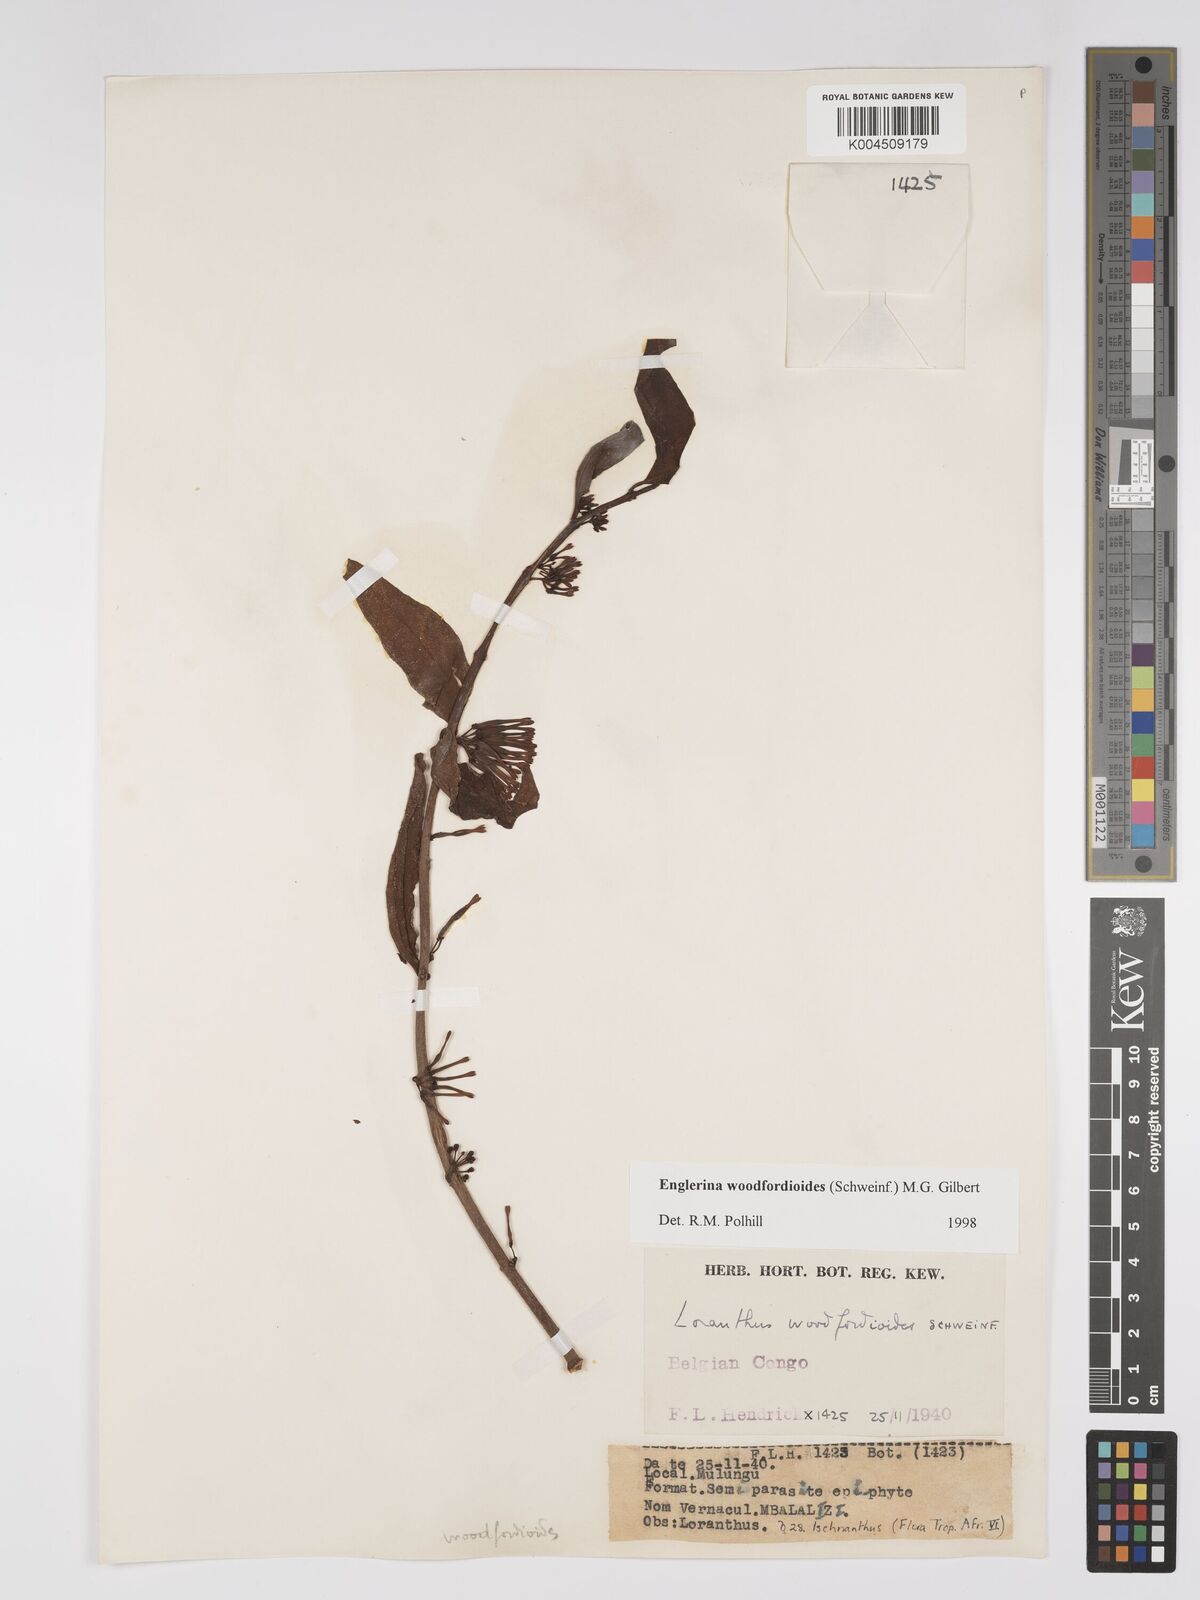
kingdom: Plantae
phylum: Tracheophyta
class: Magnoliopsida
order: Santalales
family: Loranthaceae
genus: Englerina
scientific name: Englerina woodfordioides
